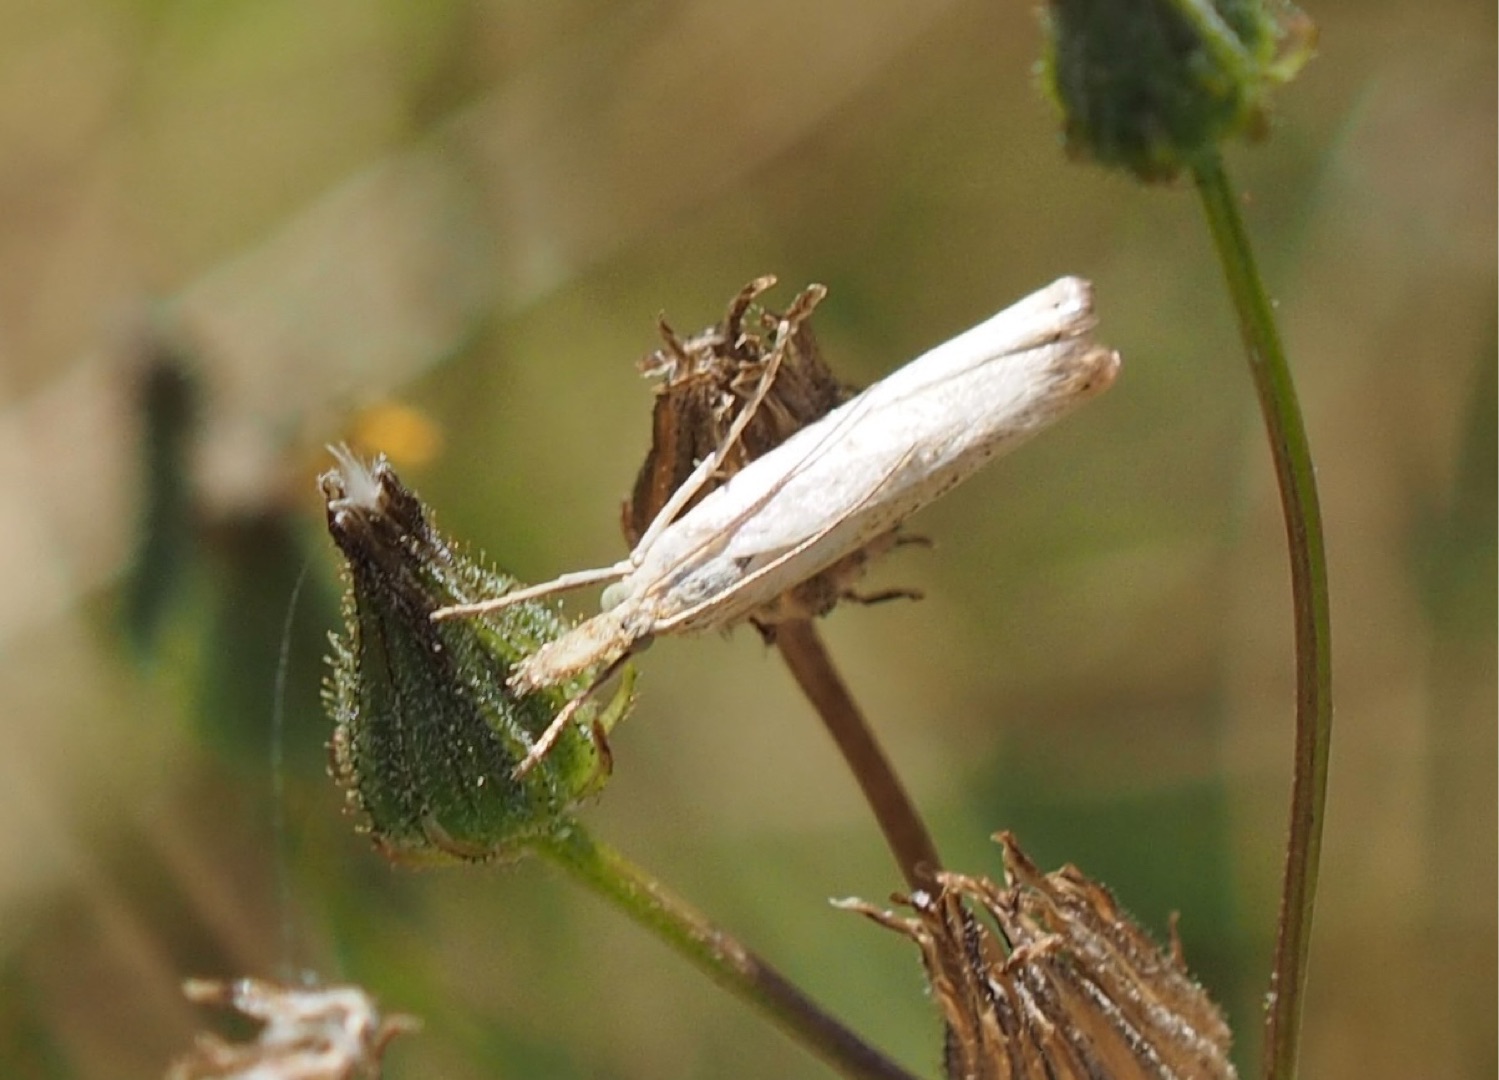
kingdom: Animalia
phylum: Arthropoda
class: Insecta
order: Lepidoptera
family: Crambidae
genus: Agriphila
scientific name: Agriphila straminella
